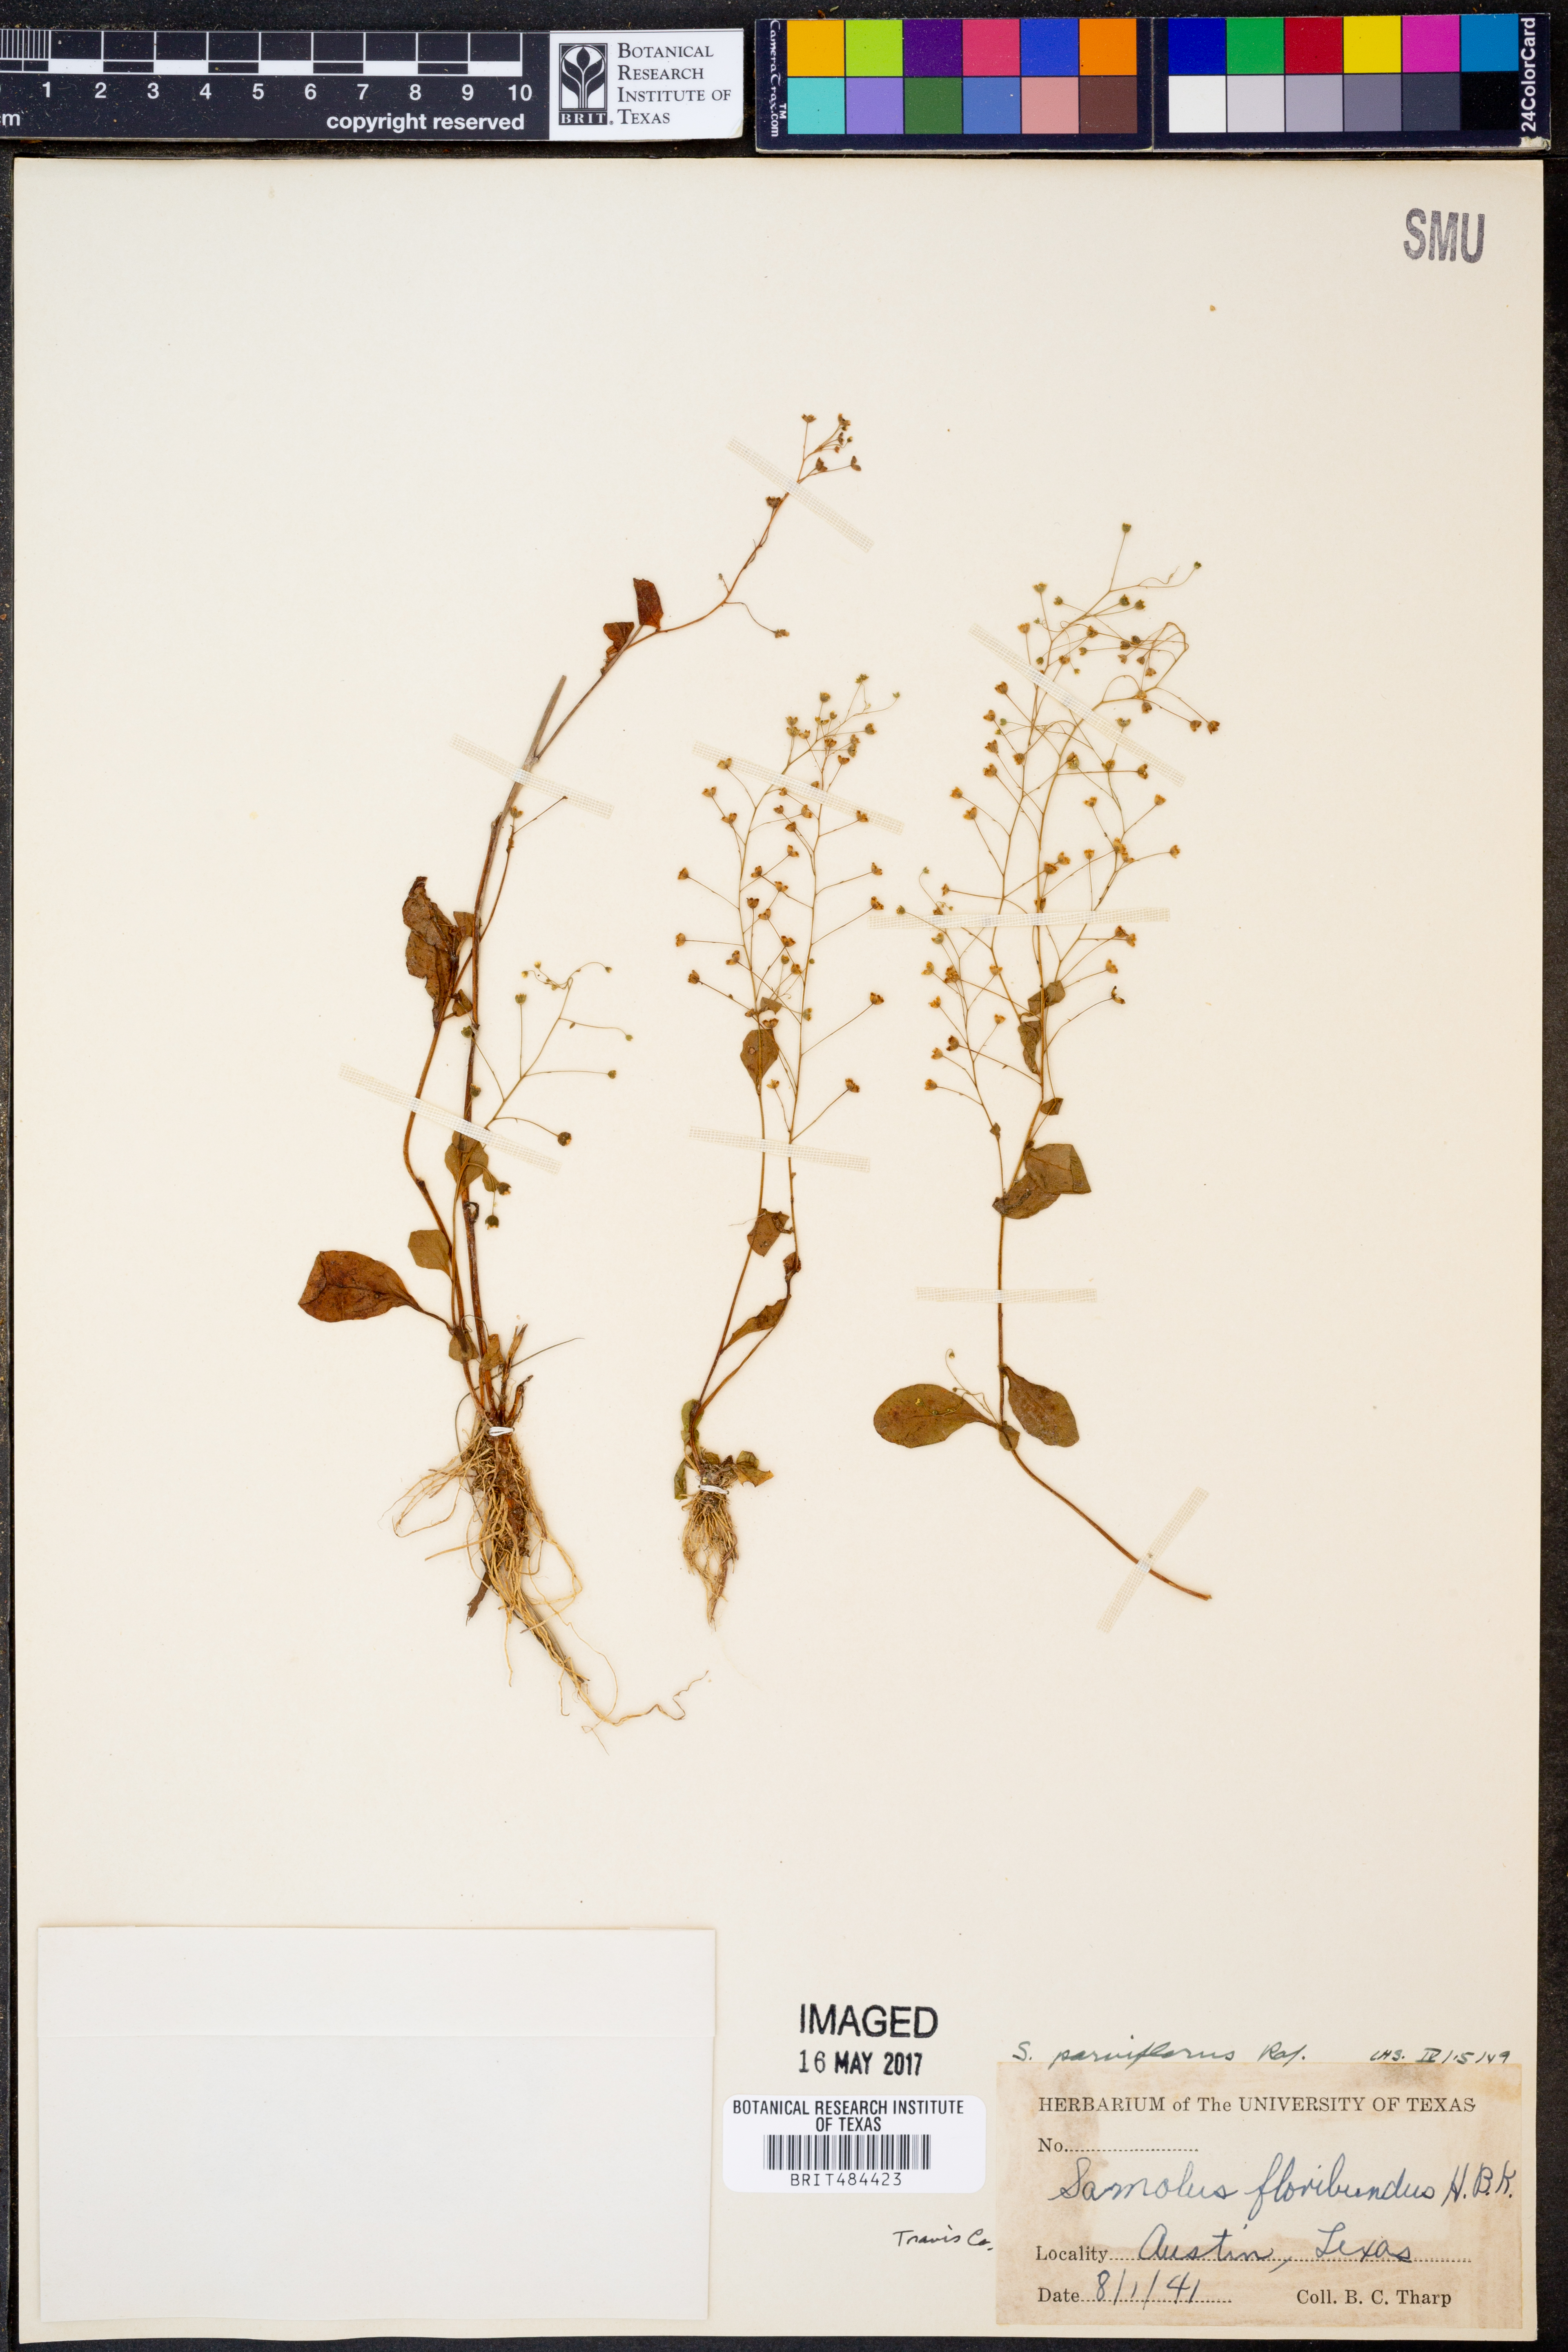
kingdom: Plantae
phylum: Tracheophyta
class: Magnoliopsida
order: Ericales
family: Primulaceae
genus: Samolus
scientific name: Samolus parviflorus
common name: False water pimpernel
